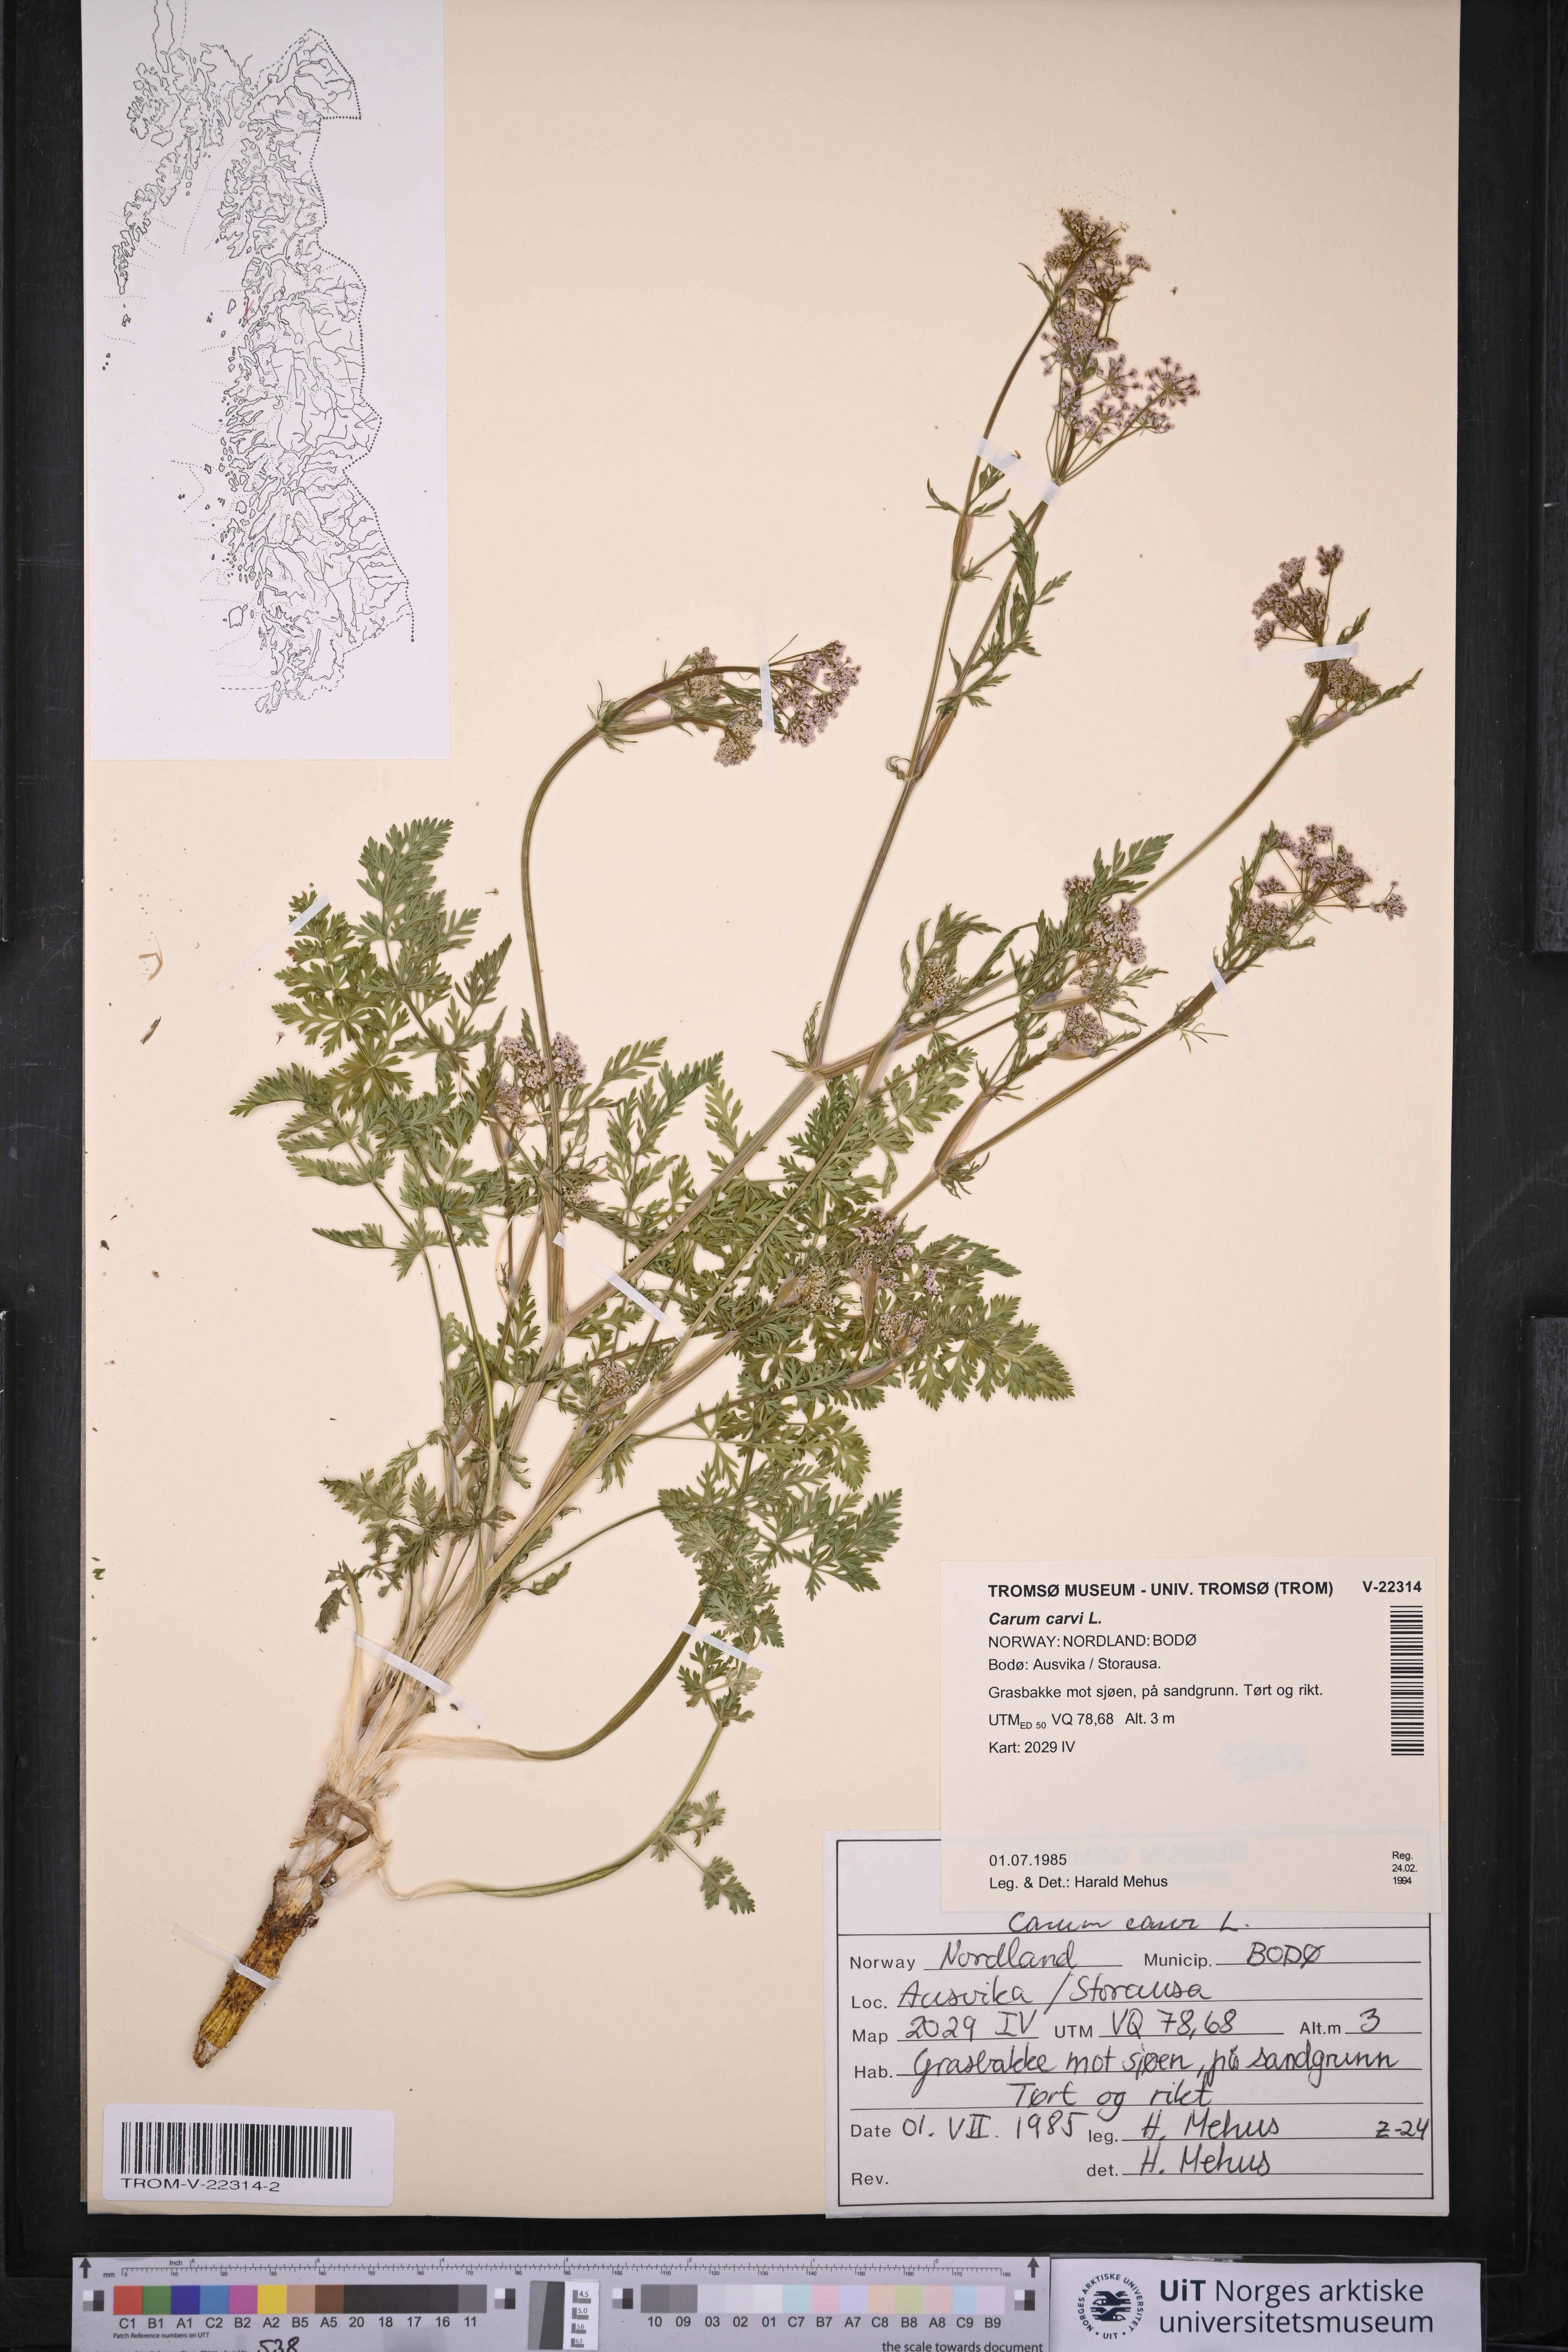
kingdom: Plantae
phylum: Tracheophyta
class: Magnoliopsida
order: Apiales
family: Apiaceae
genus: Carum
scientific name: Carum carvi
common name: Caraway
